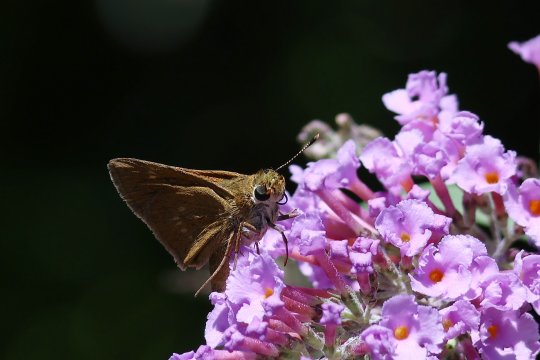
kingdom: Animalia
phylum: Arthropoda
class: Insecta
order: Lepidoptera
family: Hesperiidae
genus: Polites
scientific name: Polites
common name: Crossline Skipper
